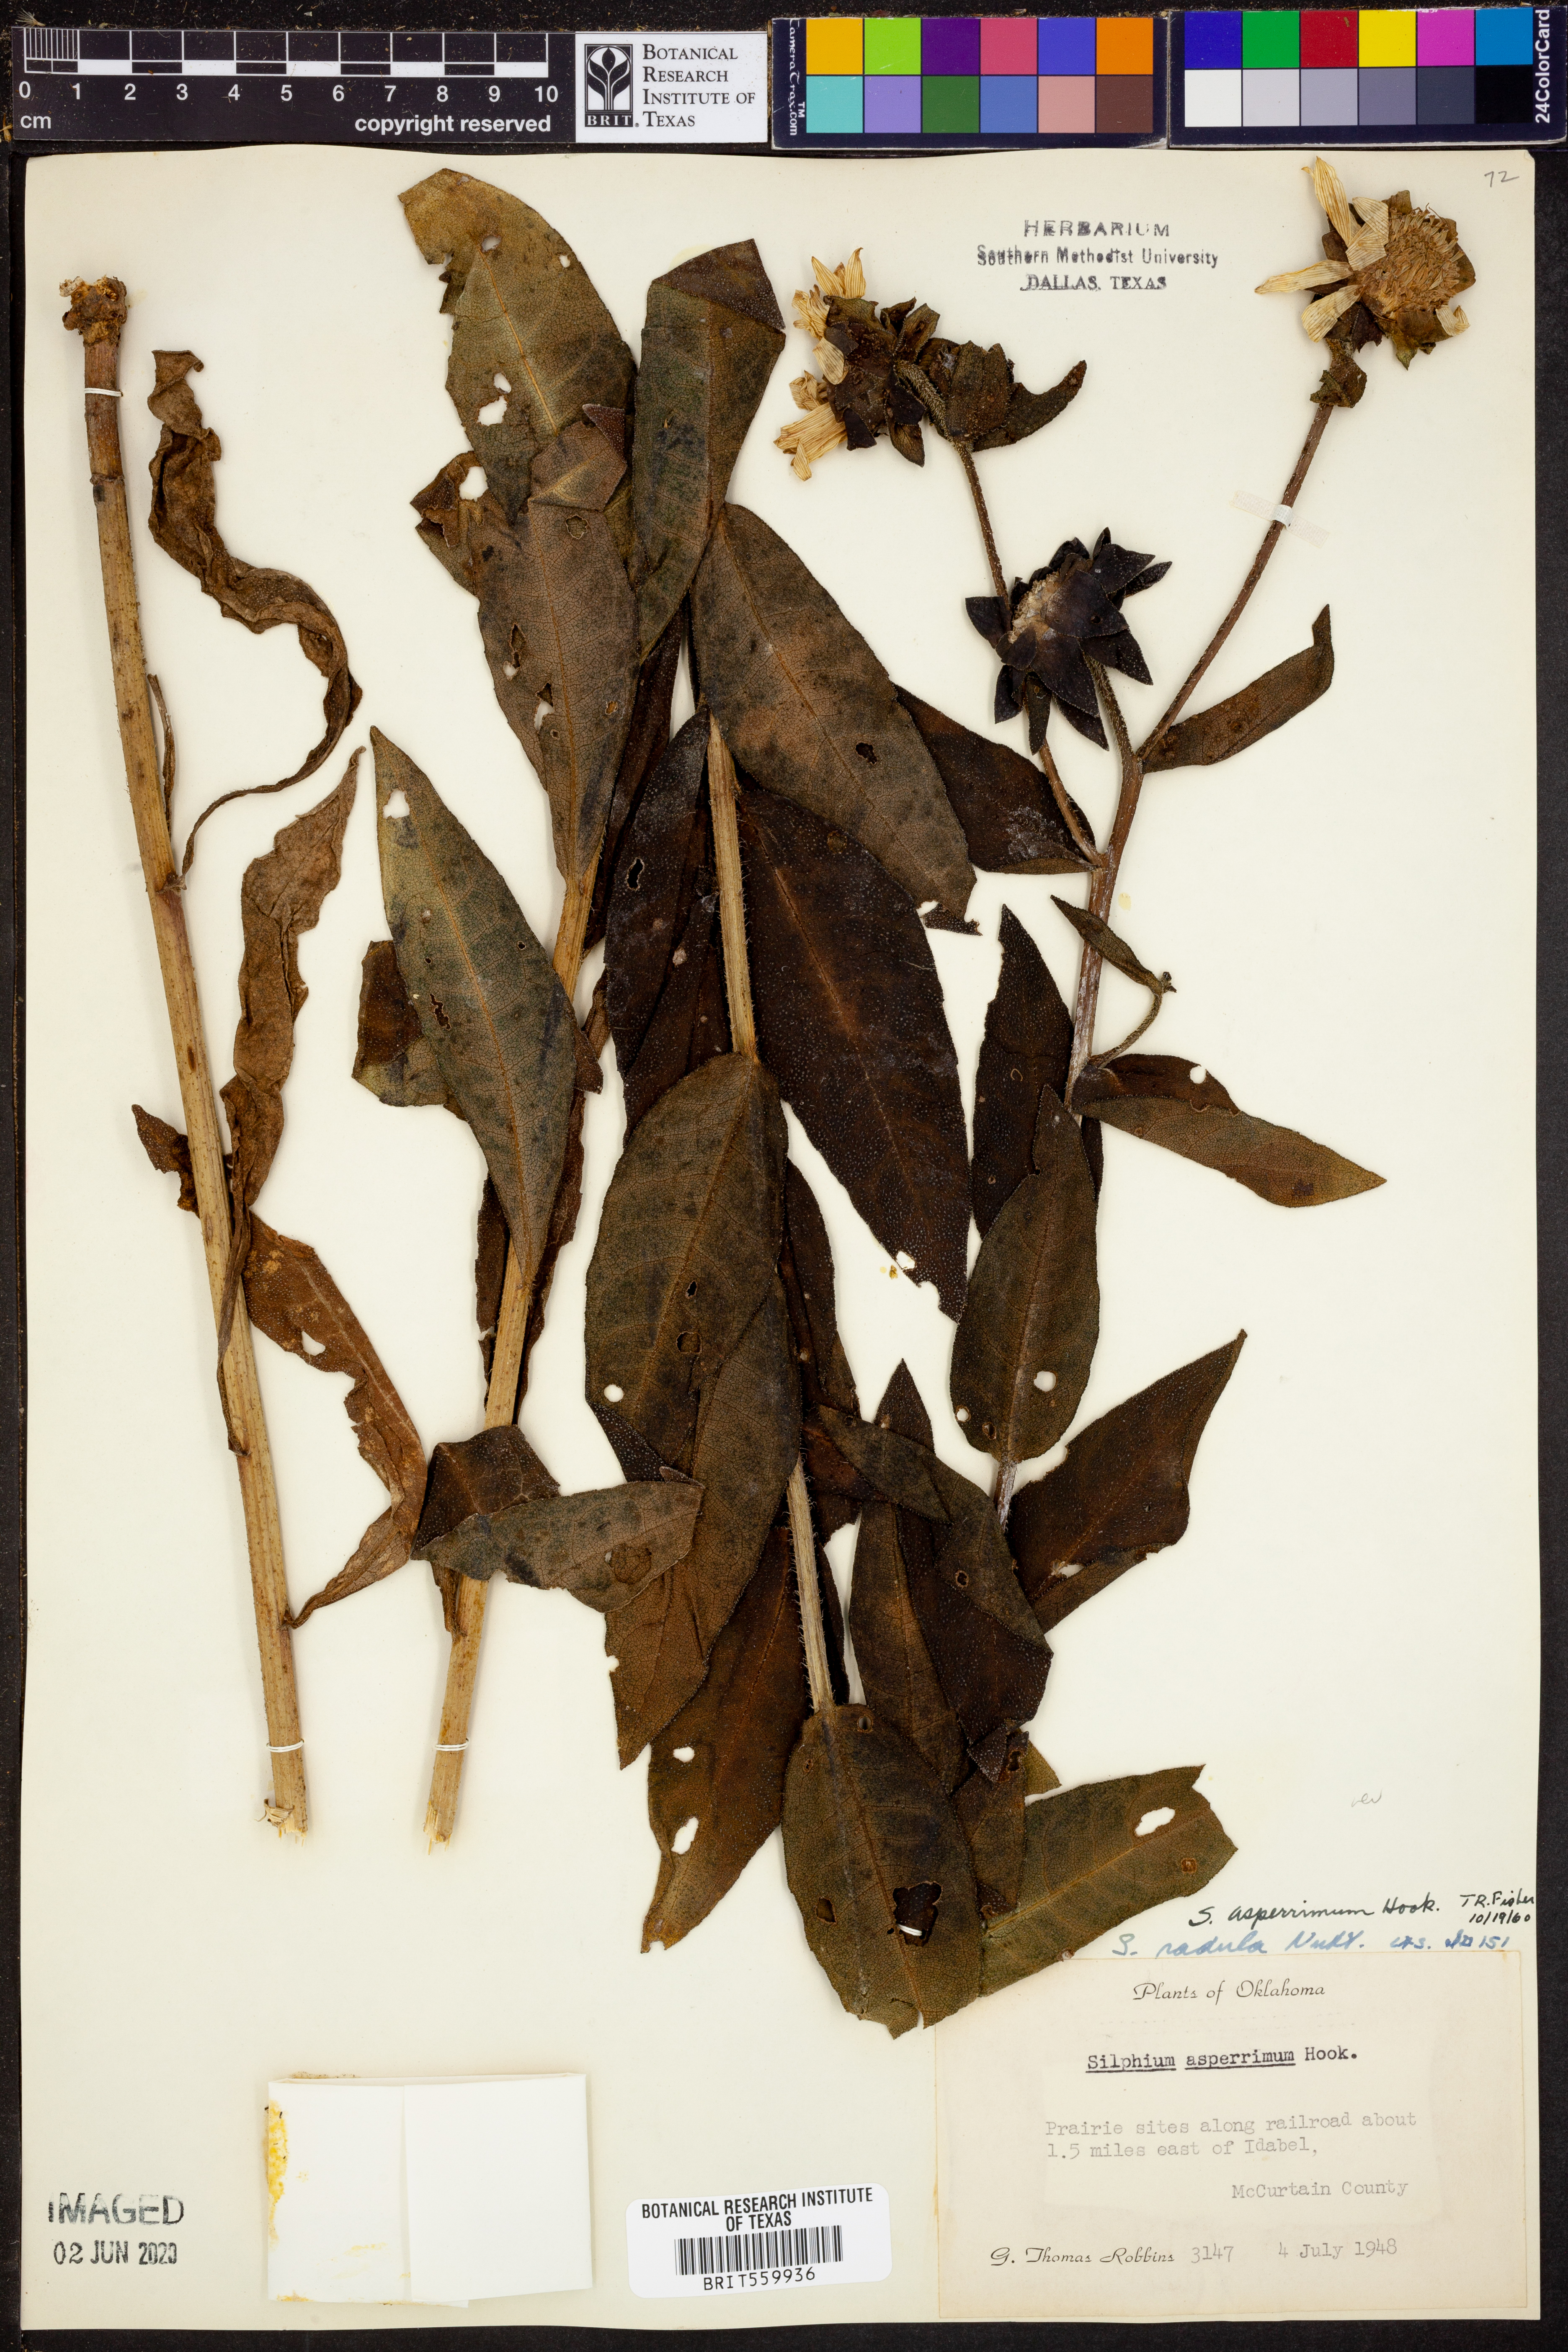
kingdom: Plantae
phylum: Tracheophyta
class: Magnoliopsida
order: Asterales
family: Asteraceae
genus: Silphium
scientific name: Silphium asperrimum
